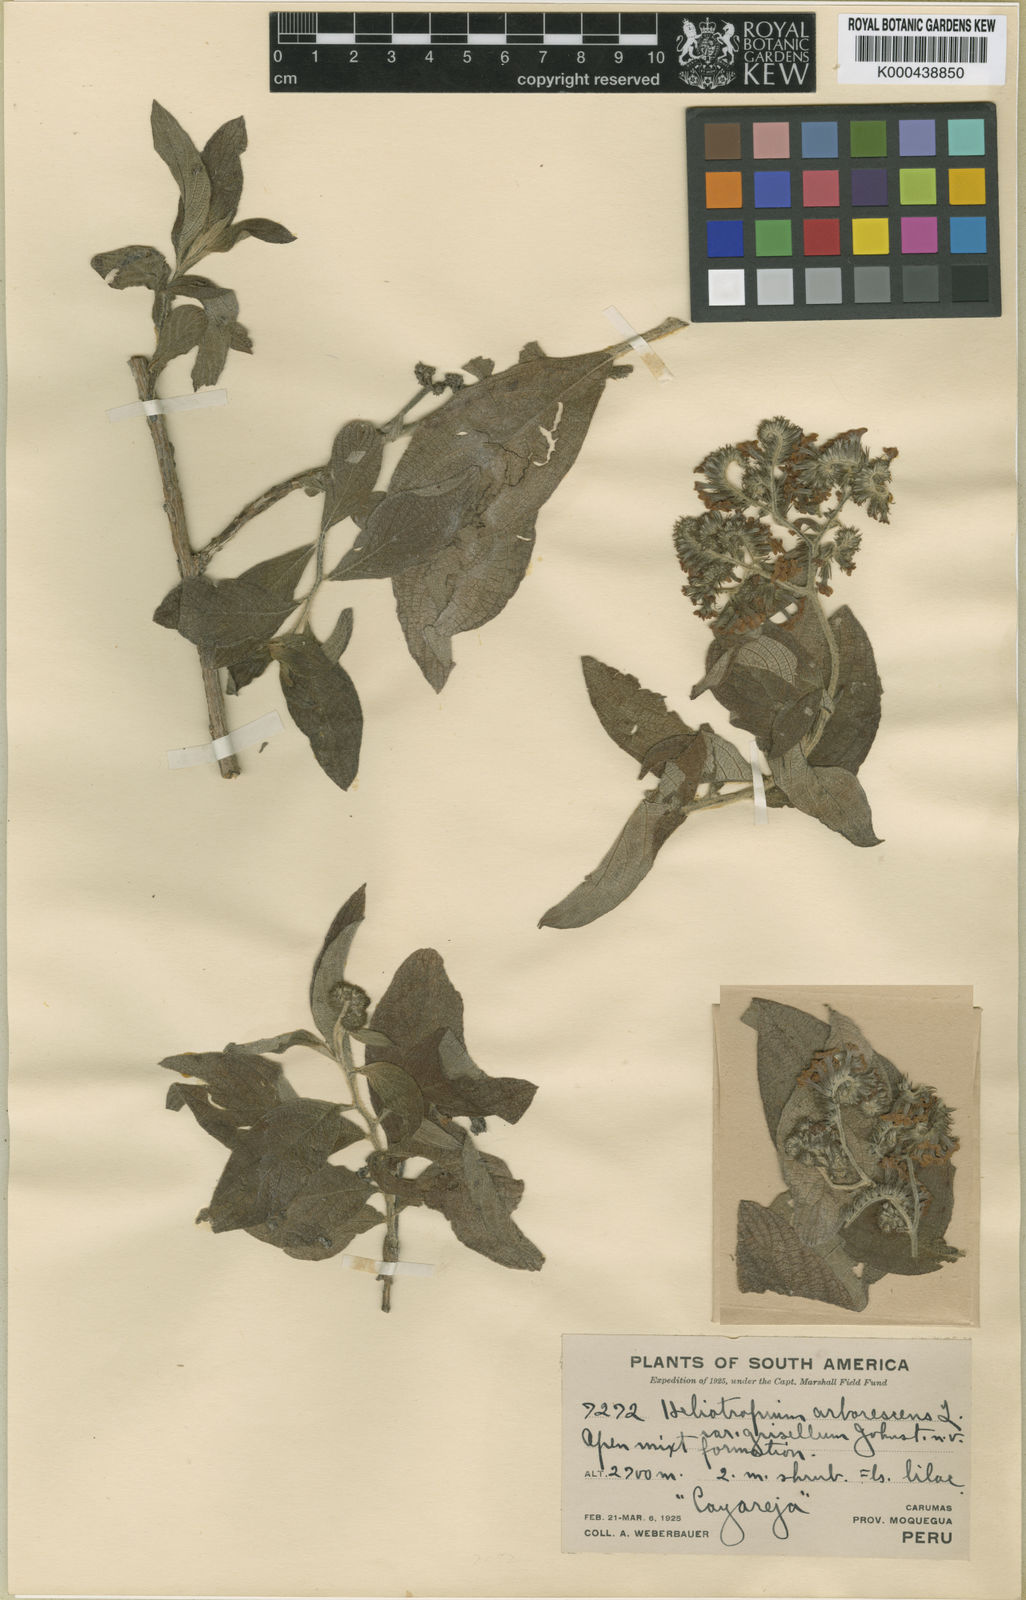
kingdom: Plantae
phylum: Tracheophyta
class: Magnoliopsida
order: Boraginales
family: Heliotropiaceae
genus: Heliotropium
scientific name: Heliotropium arborescens
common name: Cherry-pie
